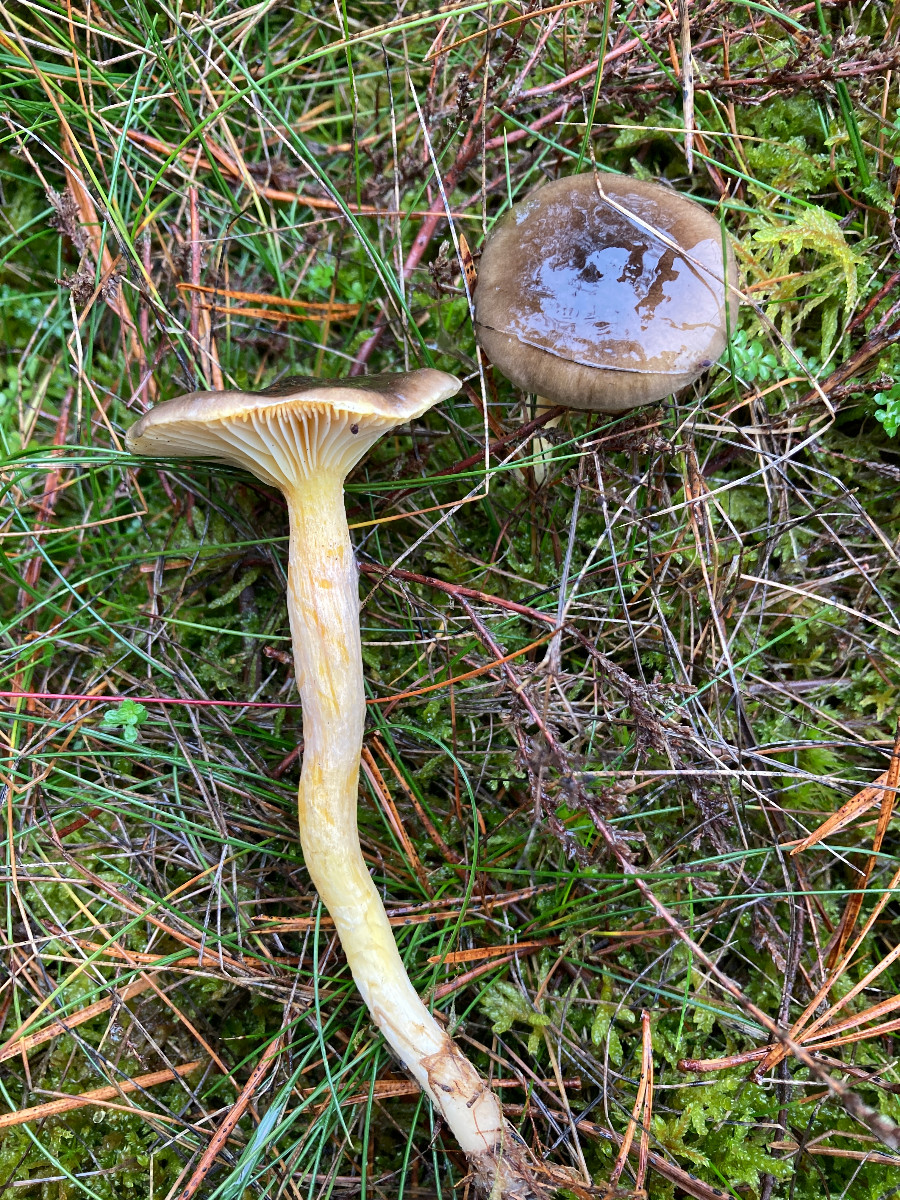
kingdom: Fungi
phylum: Basidiomycota
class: Agaricomycetes
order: Agaricales
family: Hygrophoraceae
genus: Hygrophorus
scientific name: Hygrophorus hypothejus
